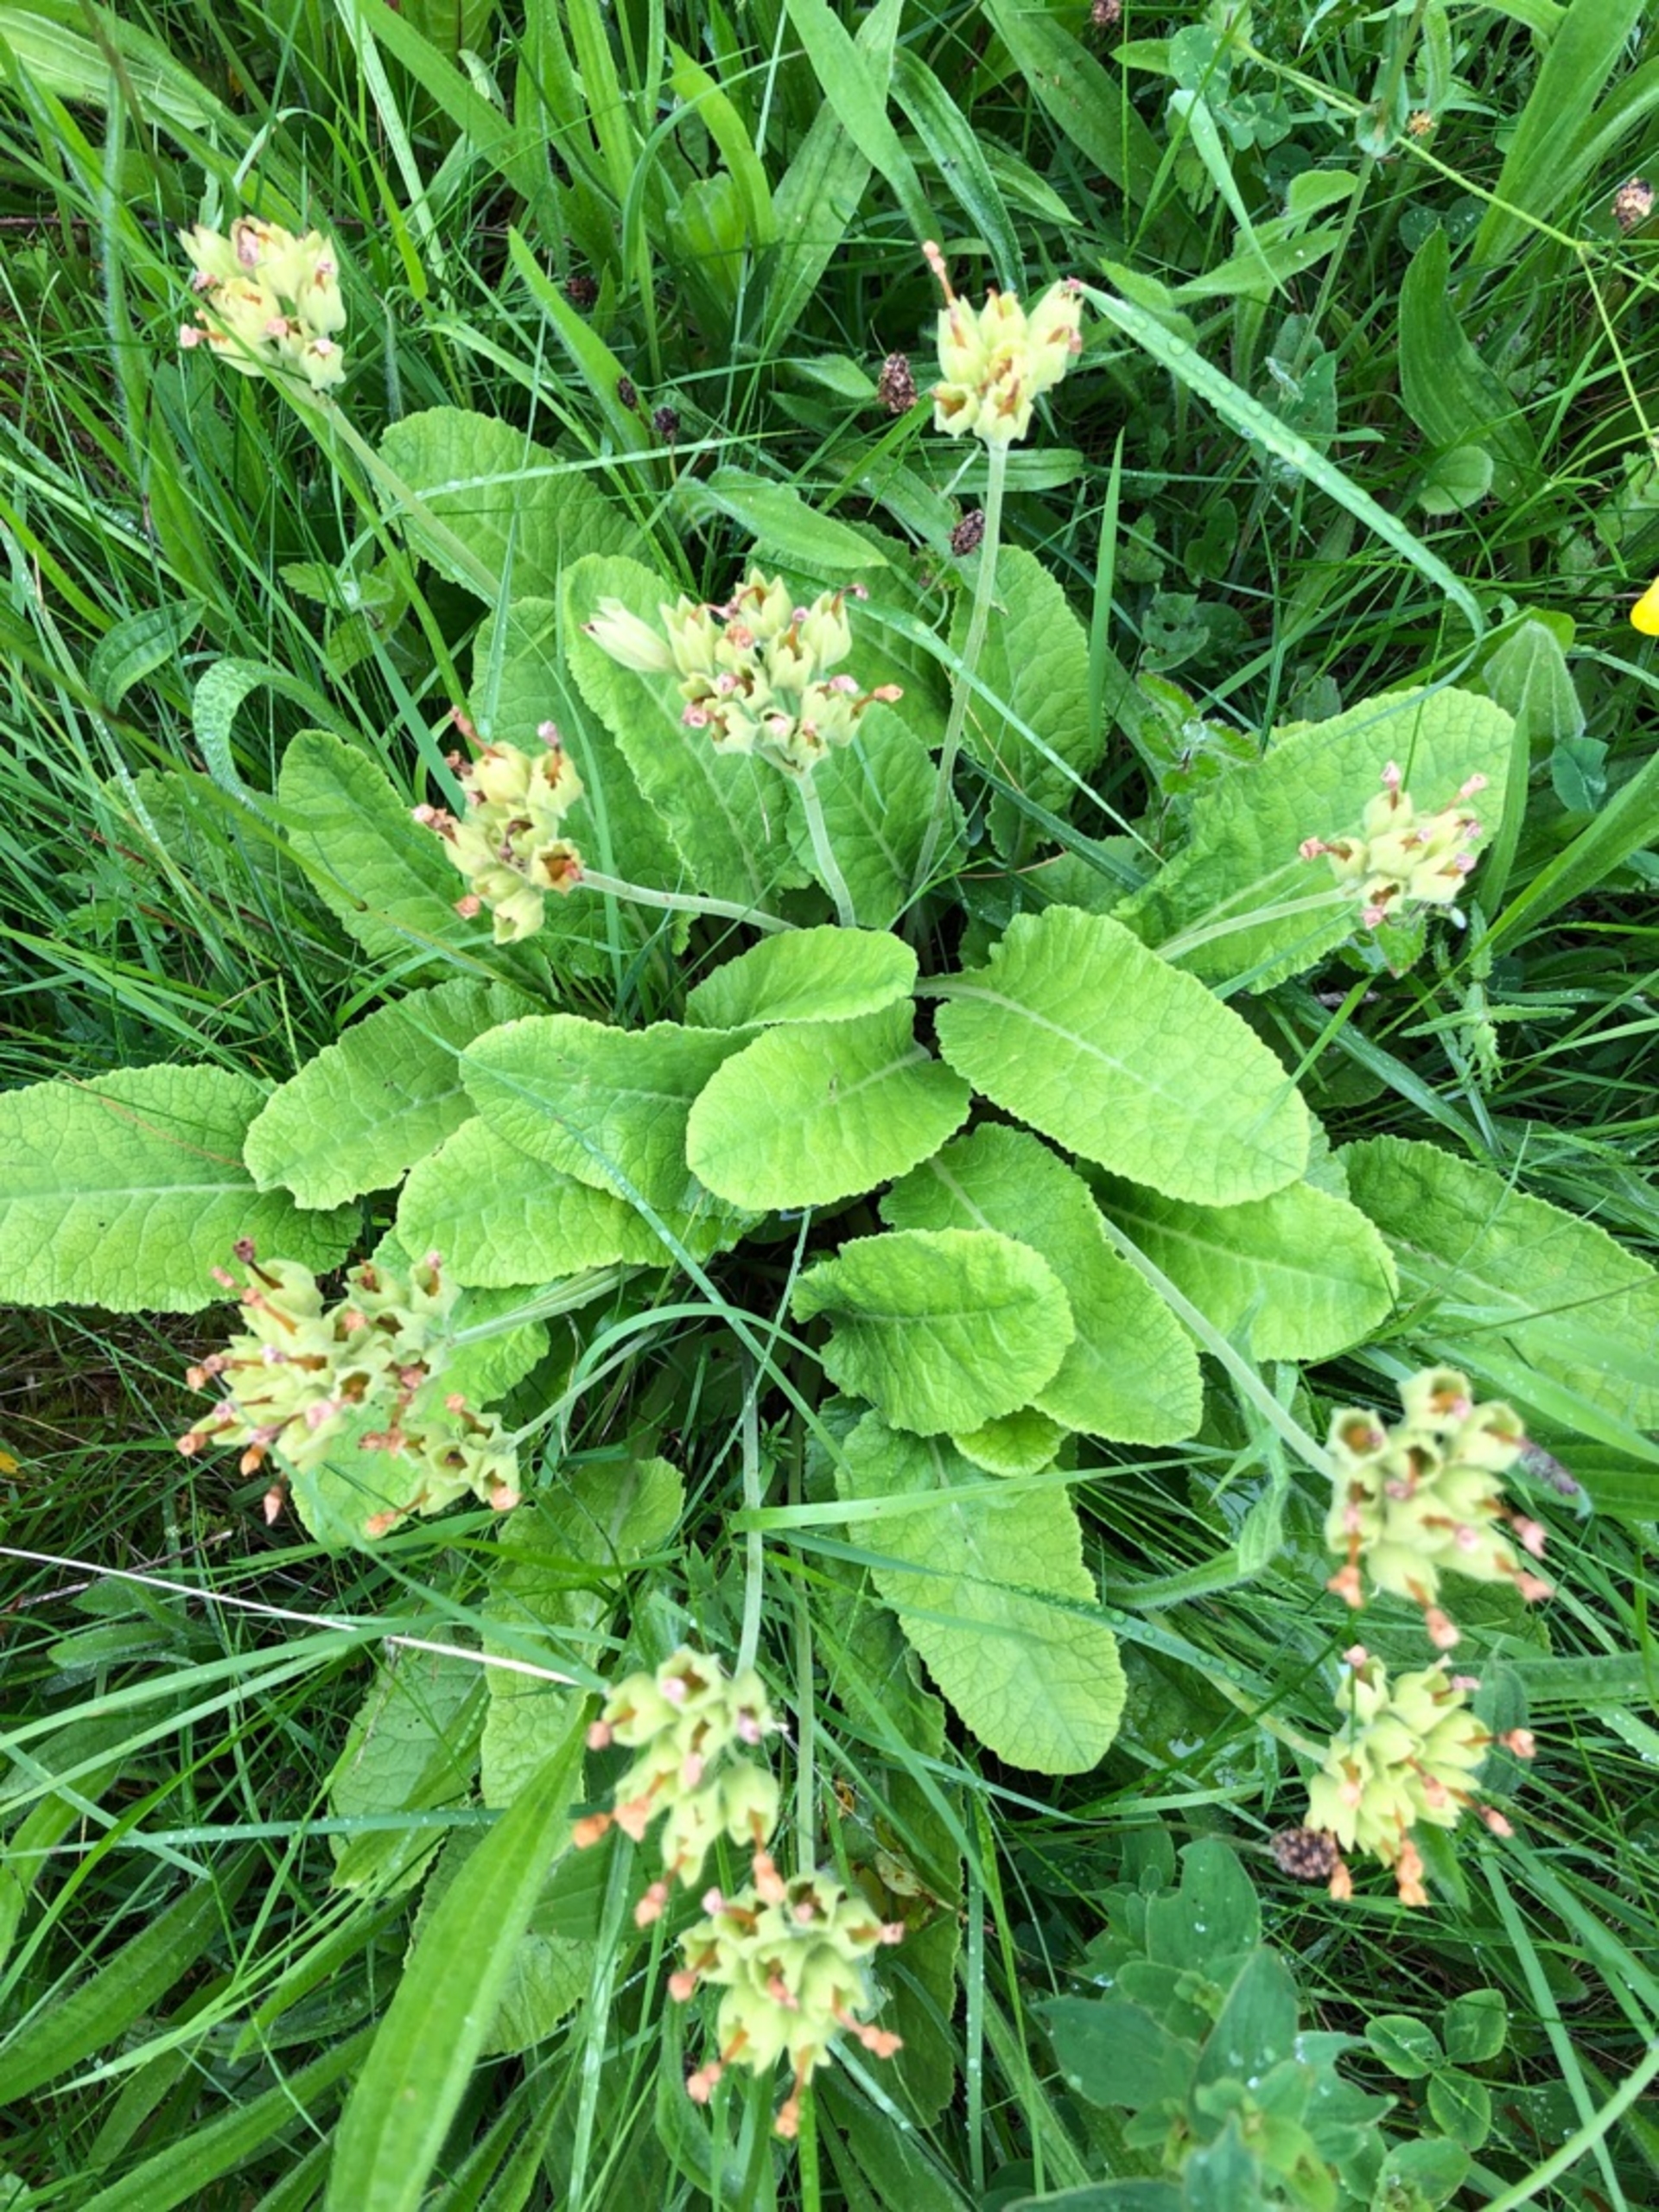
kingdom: Plantae
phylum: Tracheophyta
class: Magnoliopsida
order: Ericales
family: Primulaceae
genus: Primula
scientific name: Primula veris
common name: Hulkravet kodriver
